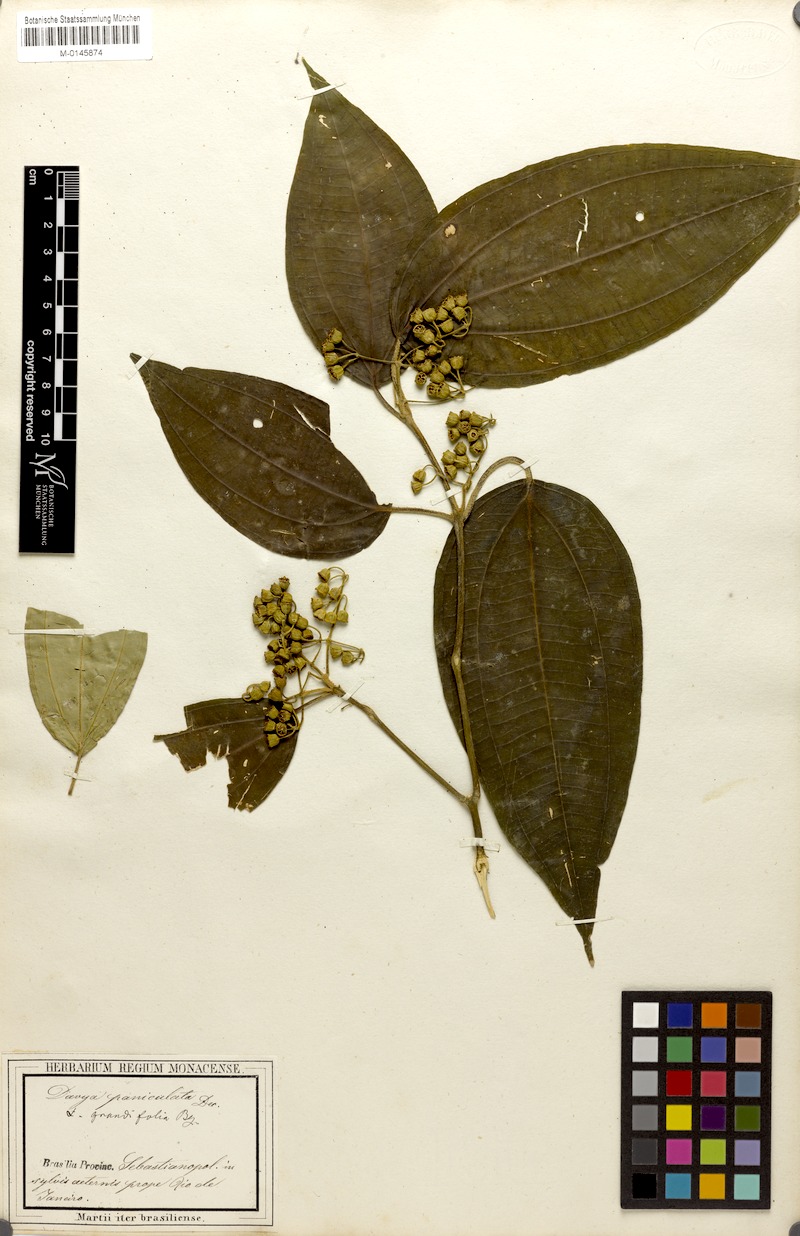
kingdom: Plantae
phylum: Tracheophyta
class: Magnoliopsida
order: Myrtales
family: Melastomataceae
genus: Meriania
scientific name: Meriania paniculata
